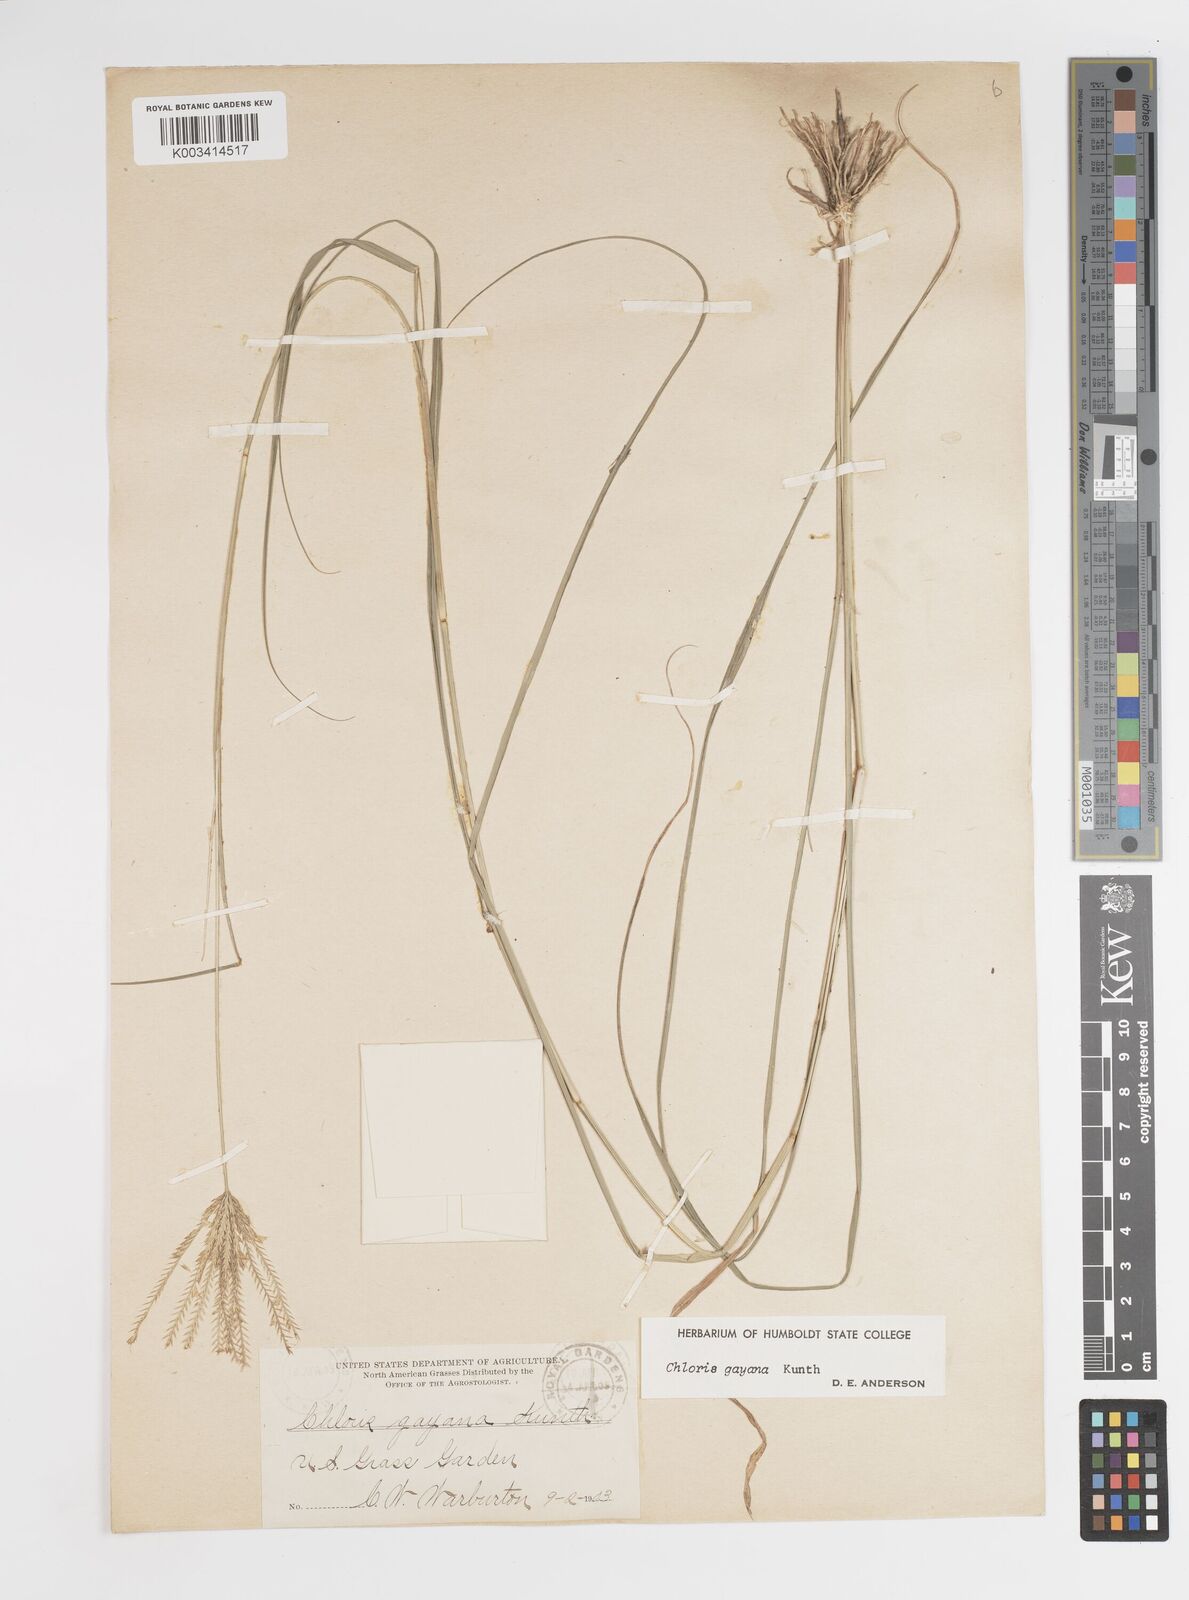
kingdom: Plantae
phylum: Tracheophyta
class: Liliopsida
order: Poales
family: Poaceae
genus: Chloris
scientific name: Chloris gayana
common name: Rhodes grass
